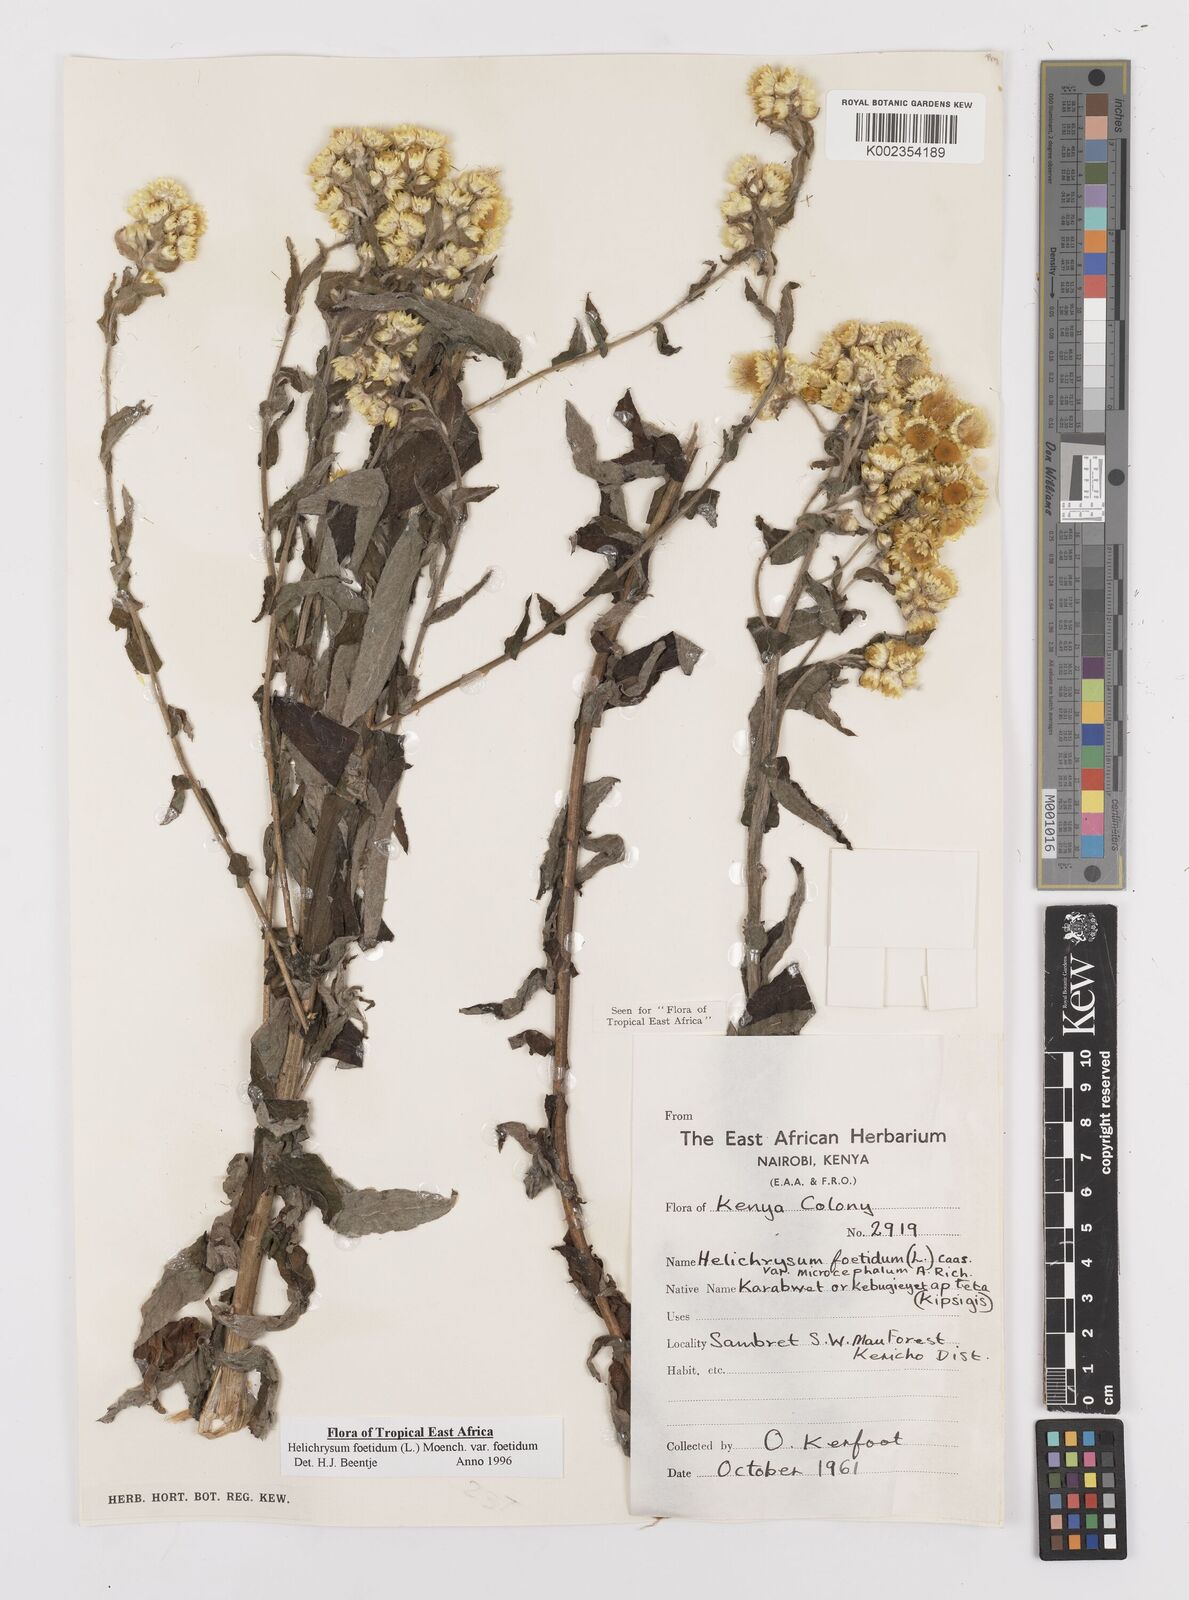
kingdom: Plantae
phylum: Tracheophyta
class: Magnoliopsida
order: Asterales
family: Asteraceae
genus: Helichrysum
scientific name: Helichrysum foetidum
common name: Stinking everlasting
